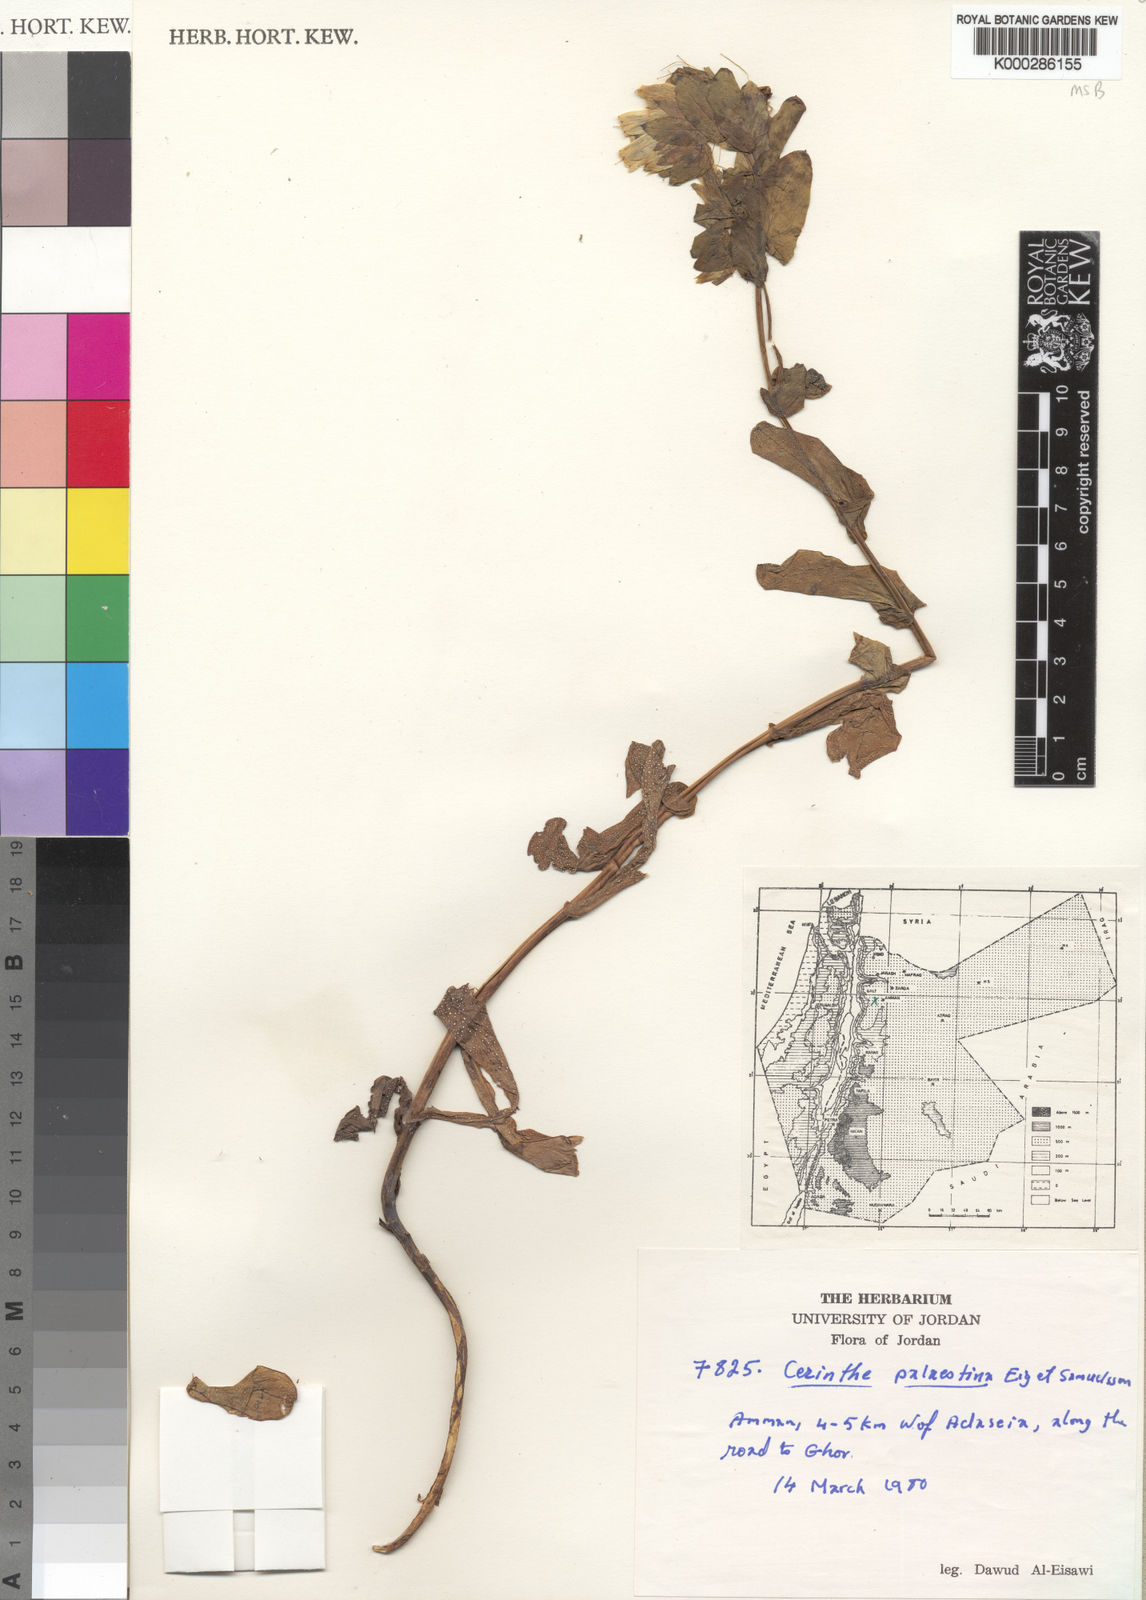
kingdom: Plantae
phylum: Tracheophyta
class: Magnoliopsida
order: Boraginales
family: Boraginaceae
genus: Cerinthe
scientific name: Cerinthe palaestina
